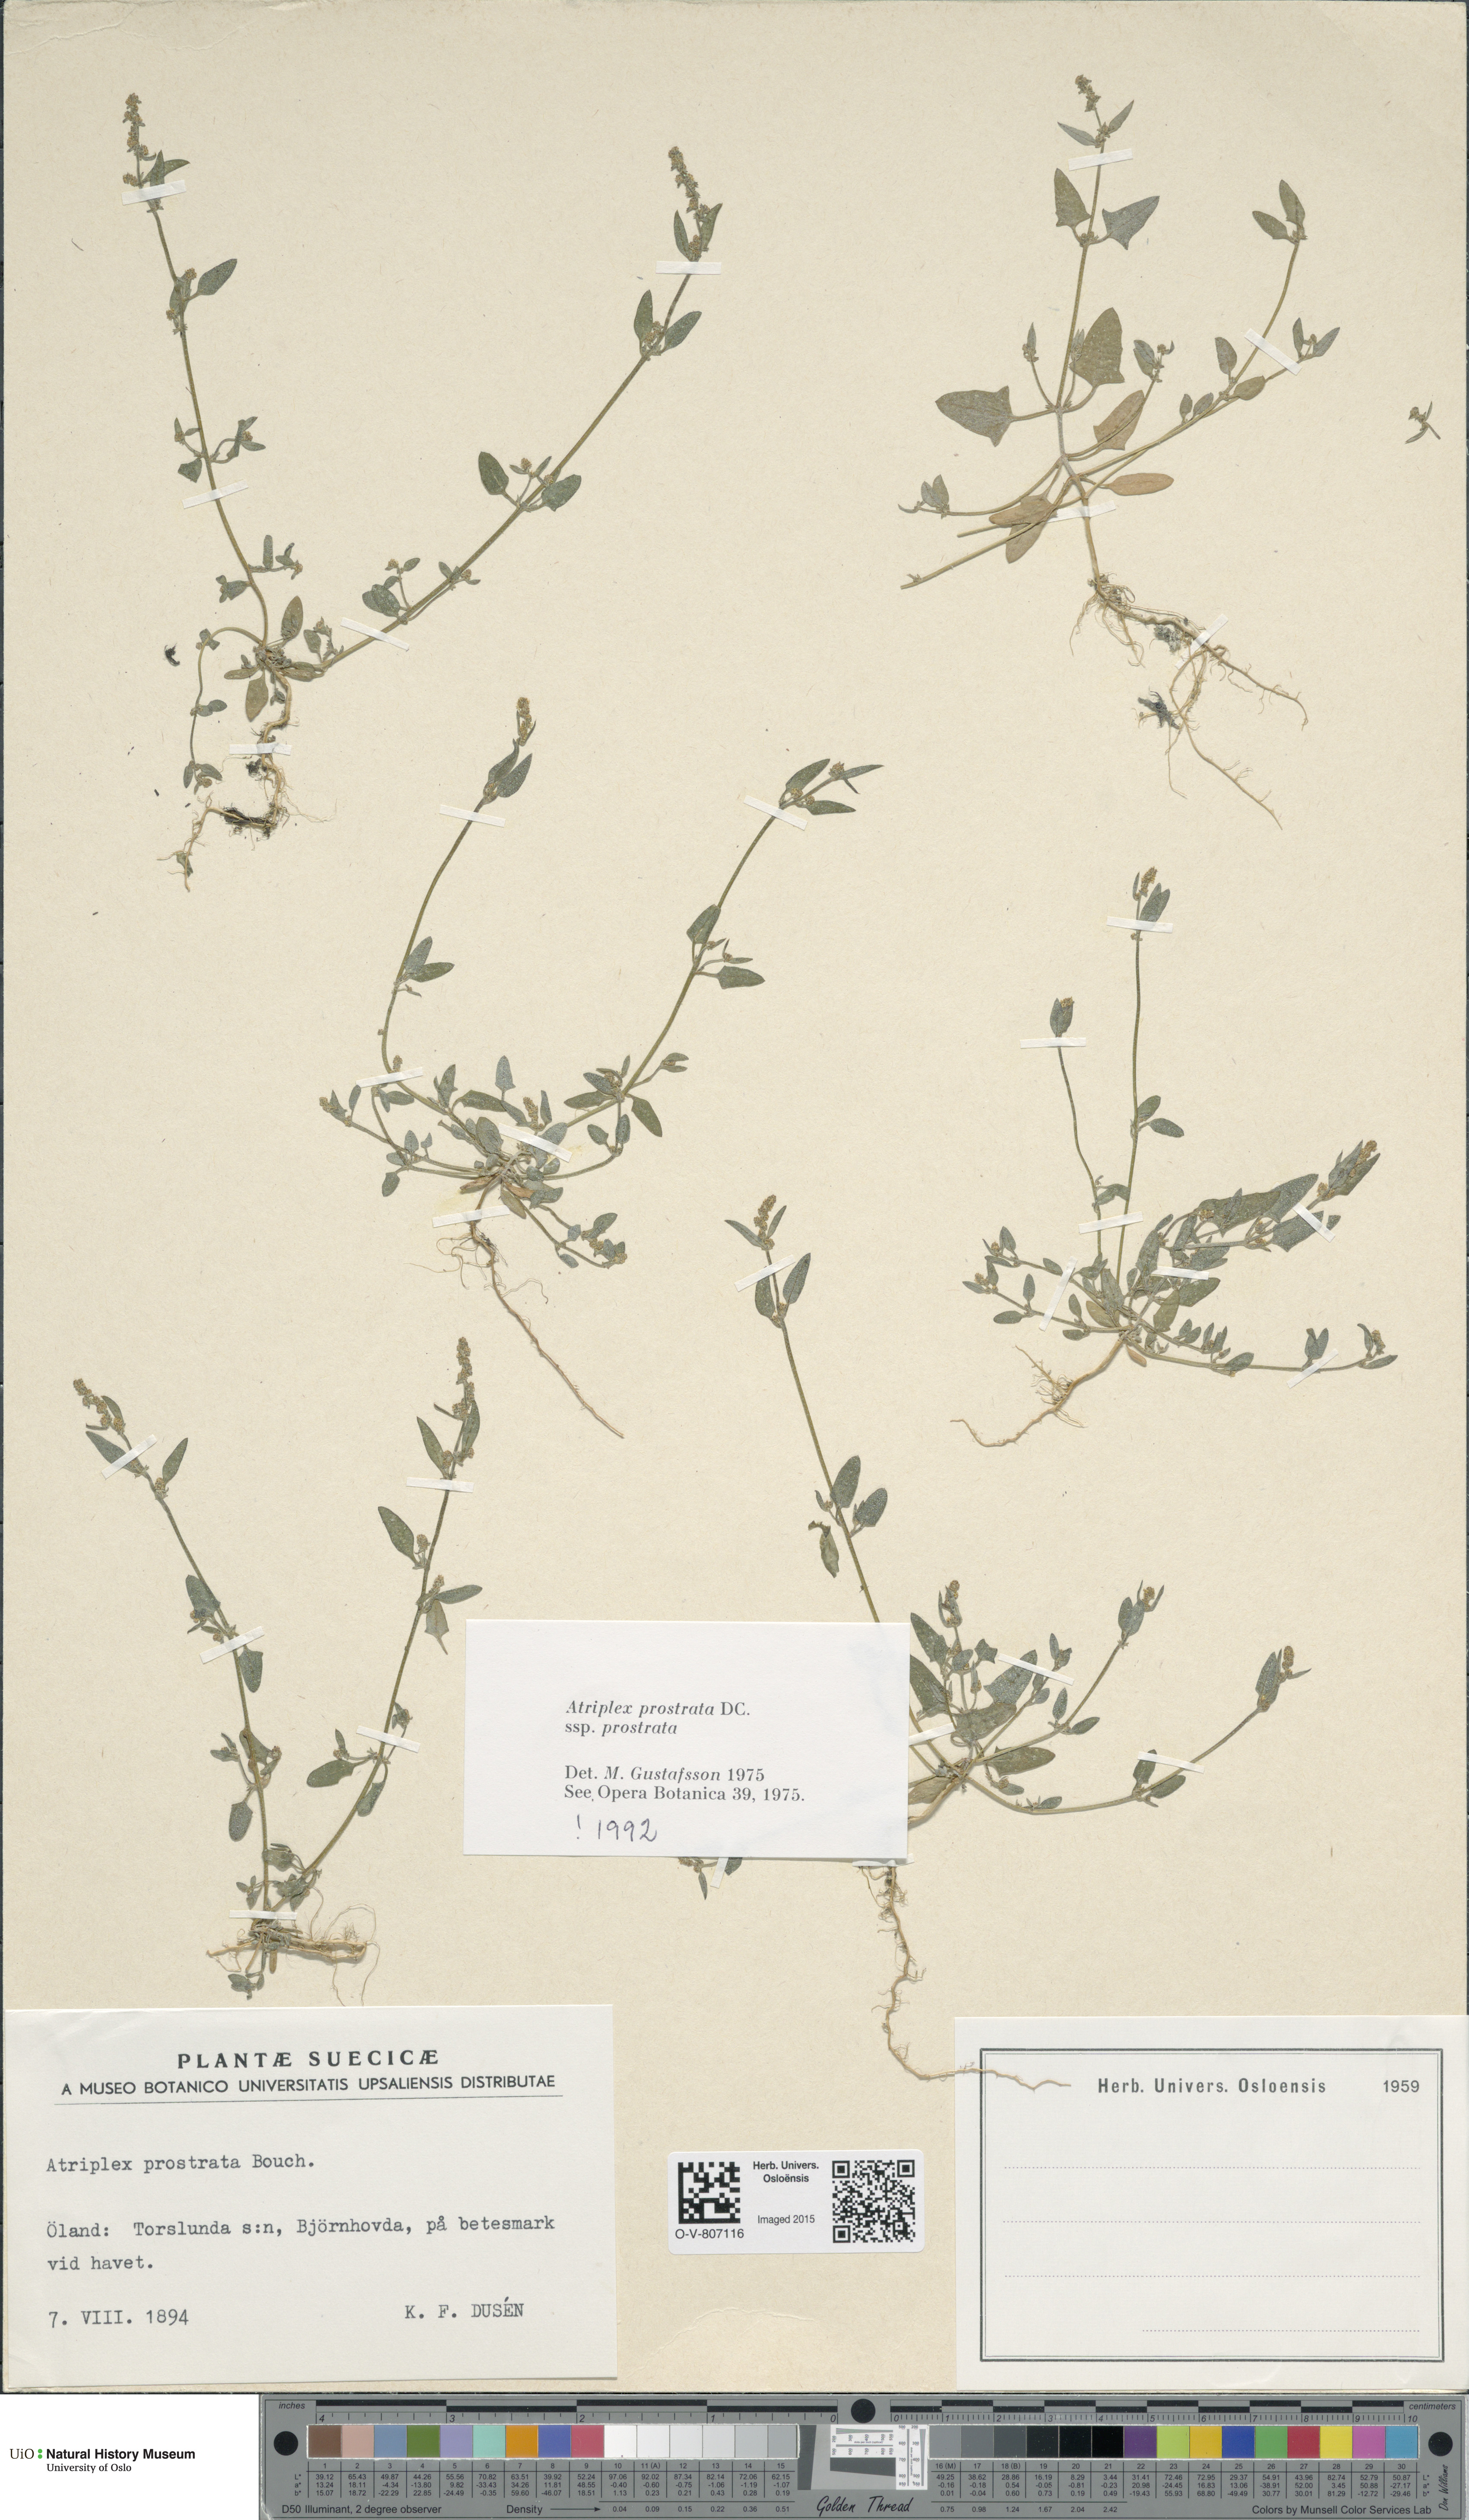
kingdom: Plantae
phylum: Tracheophyta
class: Magnoliopsida
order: Caryophyllales
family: Amaranthaceae
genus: Atriplex
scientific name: Atriplex prostrata
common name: Spear-leaved orache
